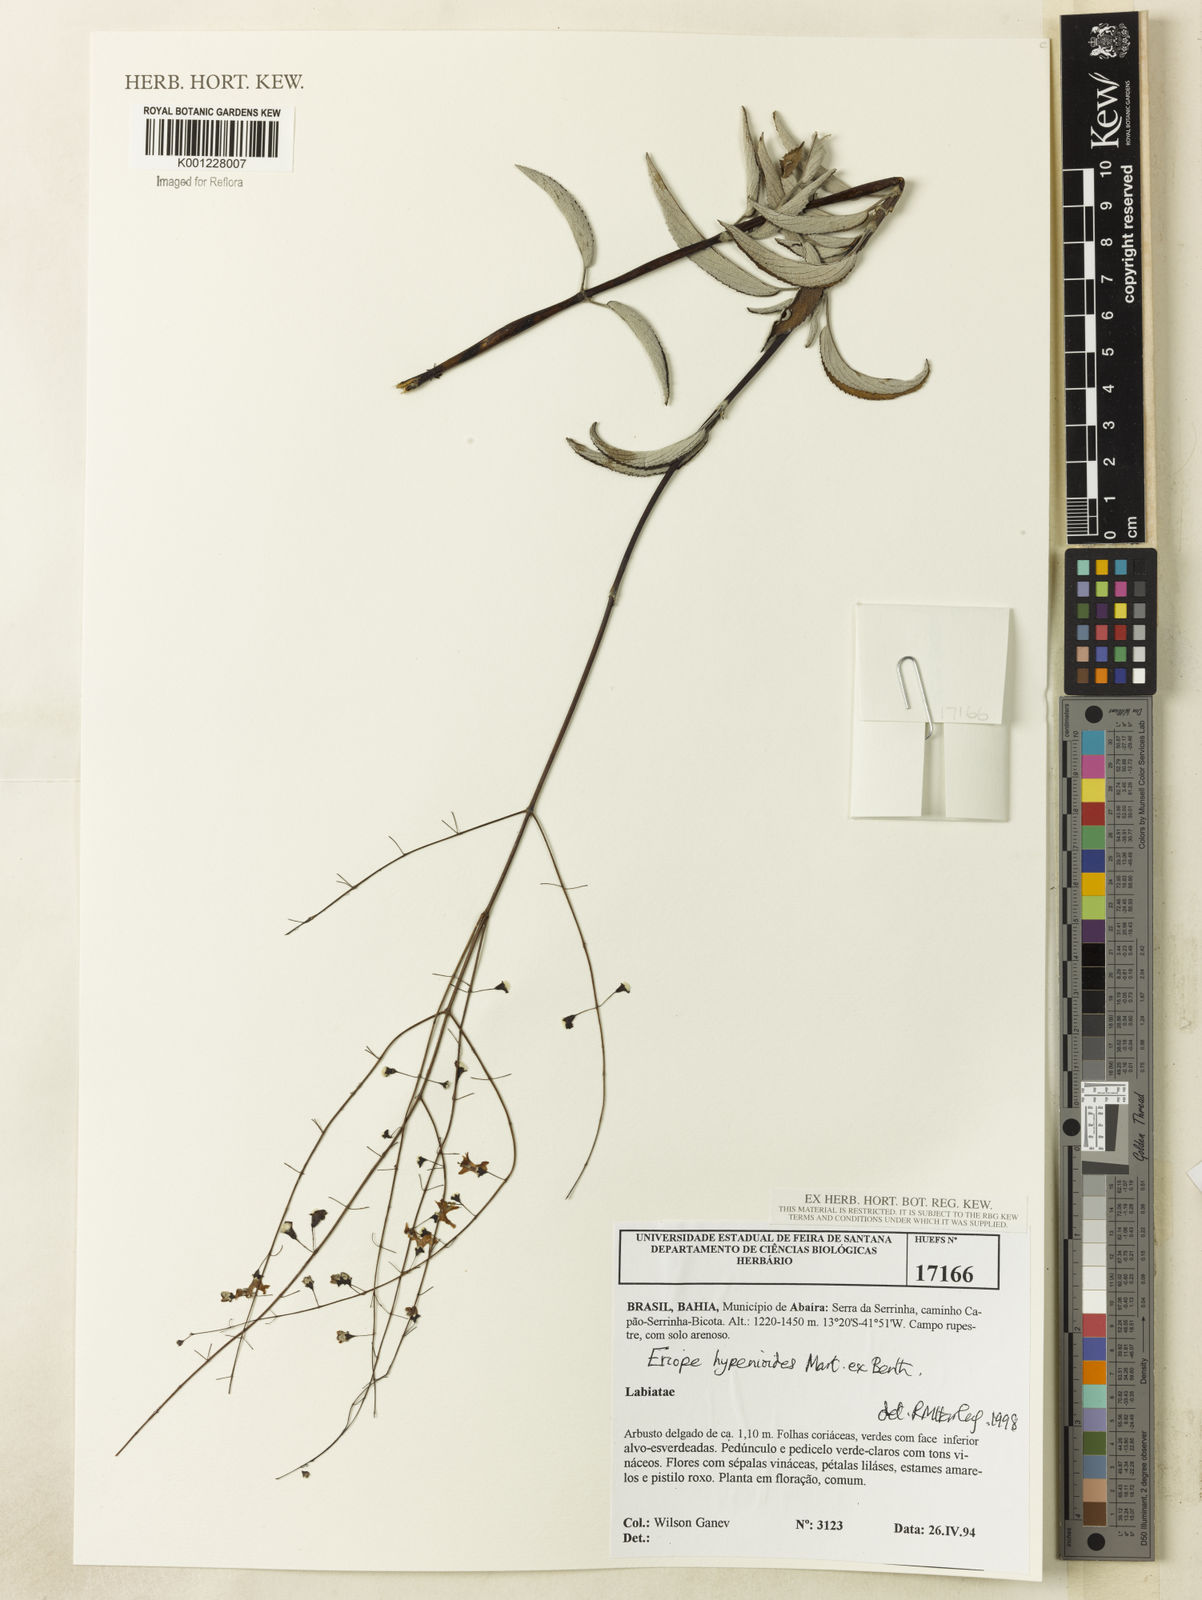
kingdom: Plantae
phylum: Tracheophyta
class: Magnoliopsida
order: Lamiales
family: Lamiaceae
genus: Eriope
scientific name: Eriope hypenioides
